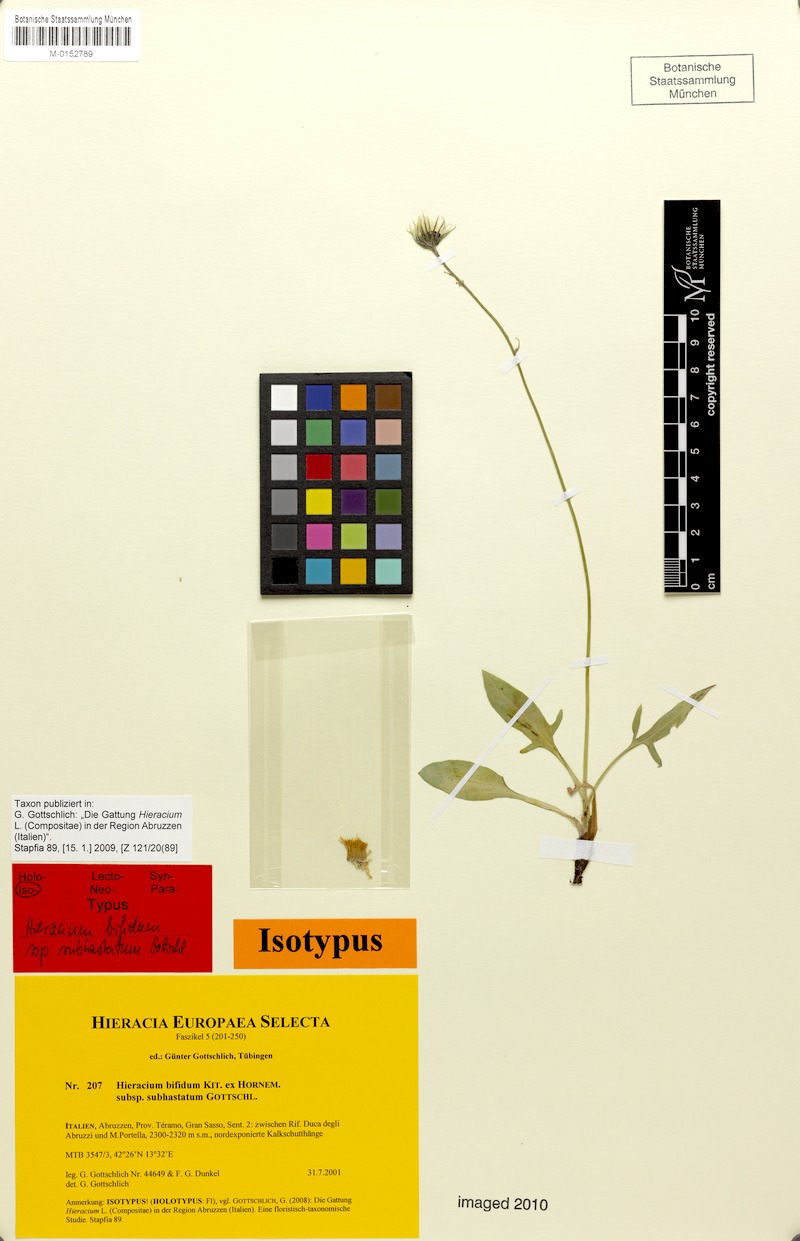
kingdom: Plantae
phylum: Tracheophyta
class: Magnoliopsida
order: Asterales
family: Asteraceae
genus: Hieracium
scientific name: Hieracium bifidum
